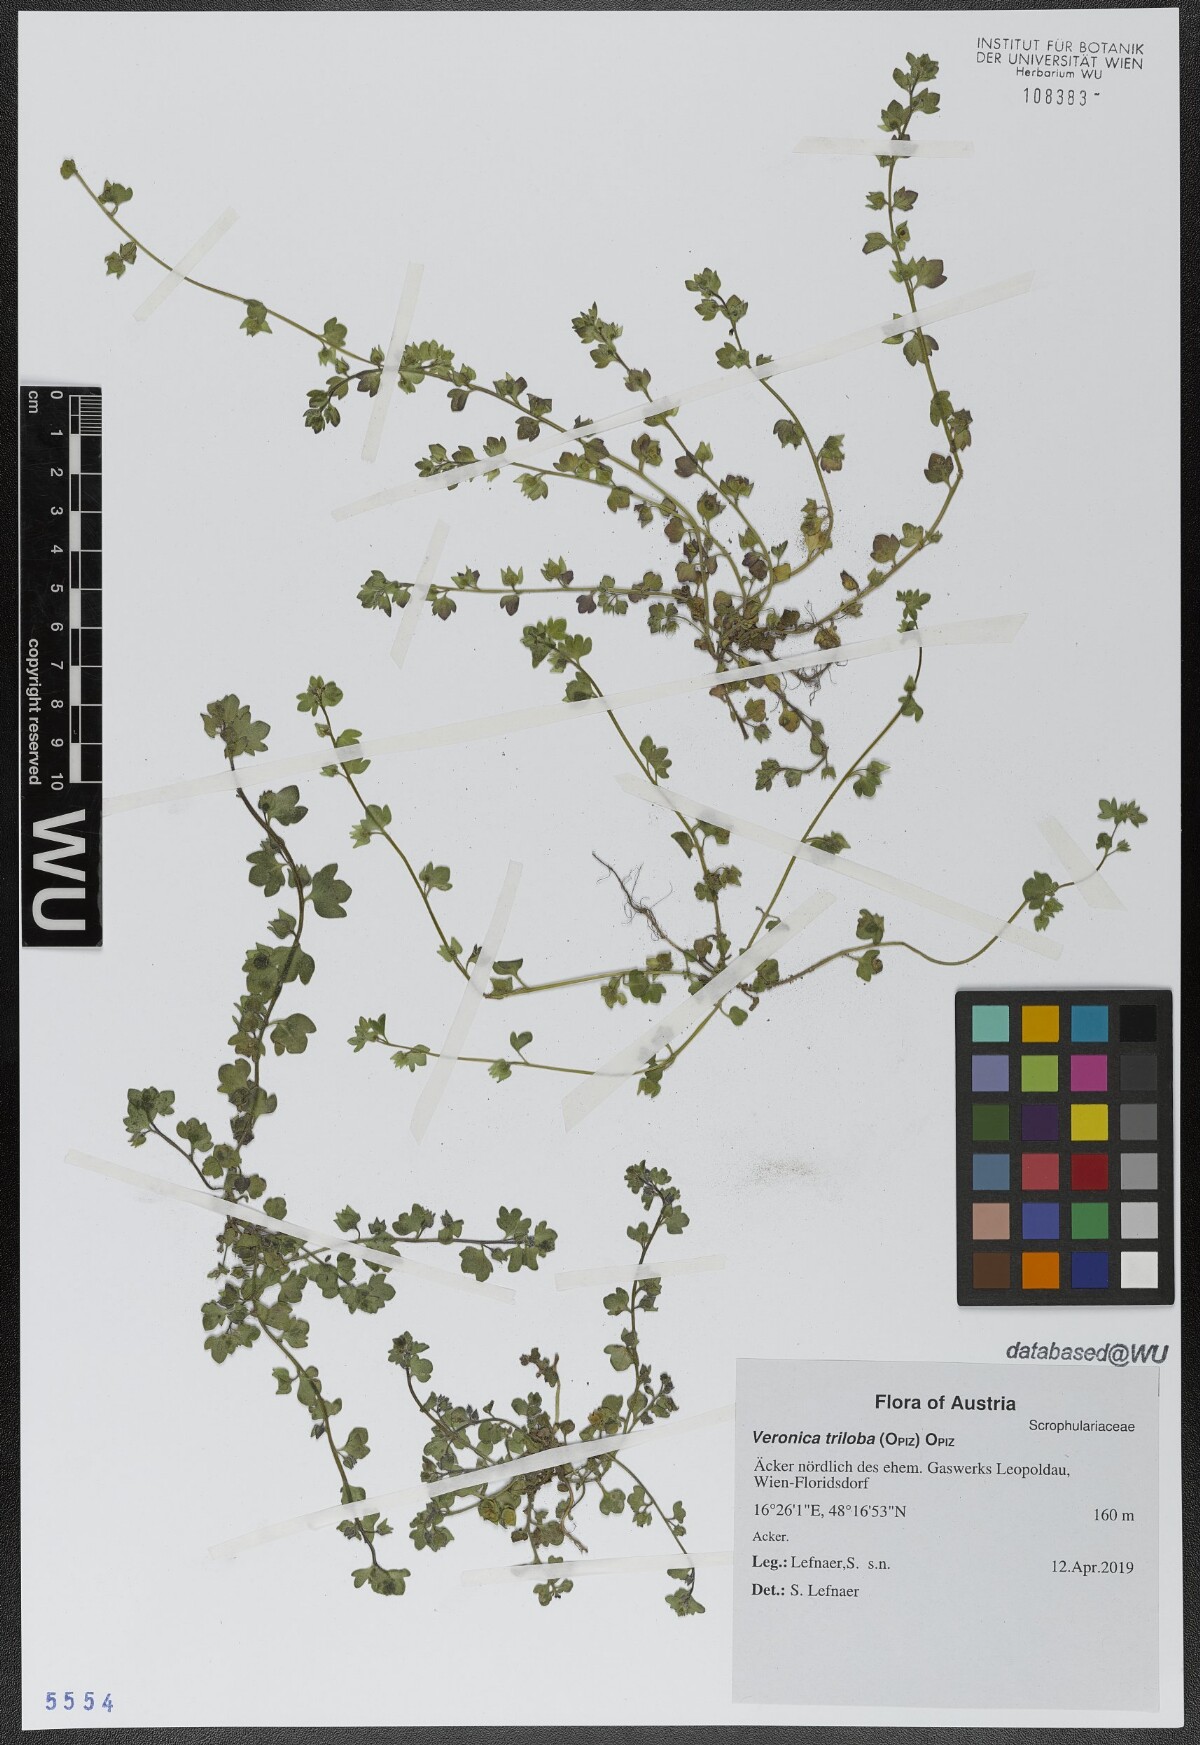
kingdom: Plantae
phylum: Tracheophyta
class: Magnoliopsida
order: Lamiales
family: Plantaginaceae
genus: Veronica
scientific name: Veronica triloba
